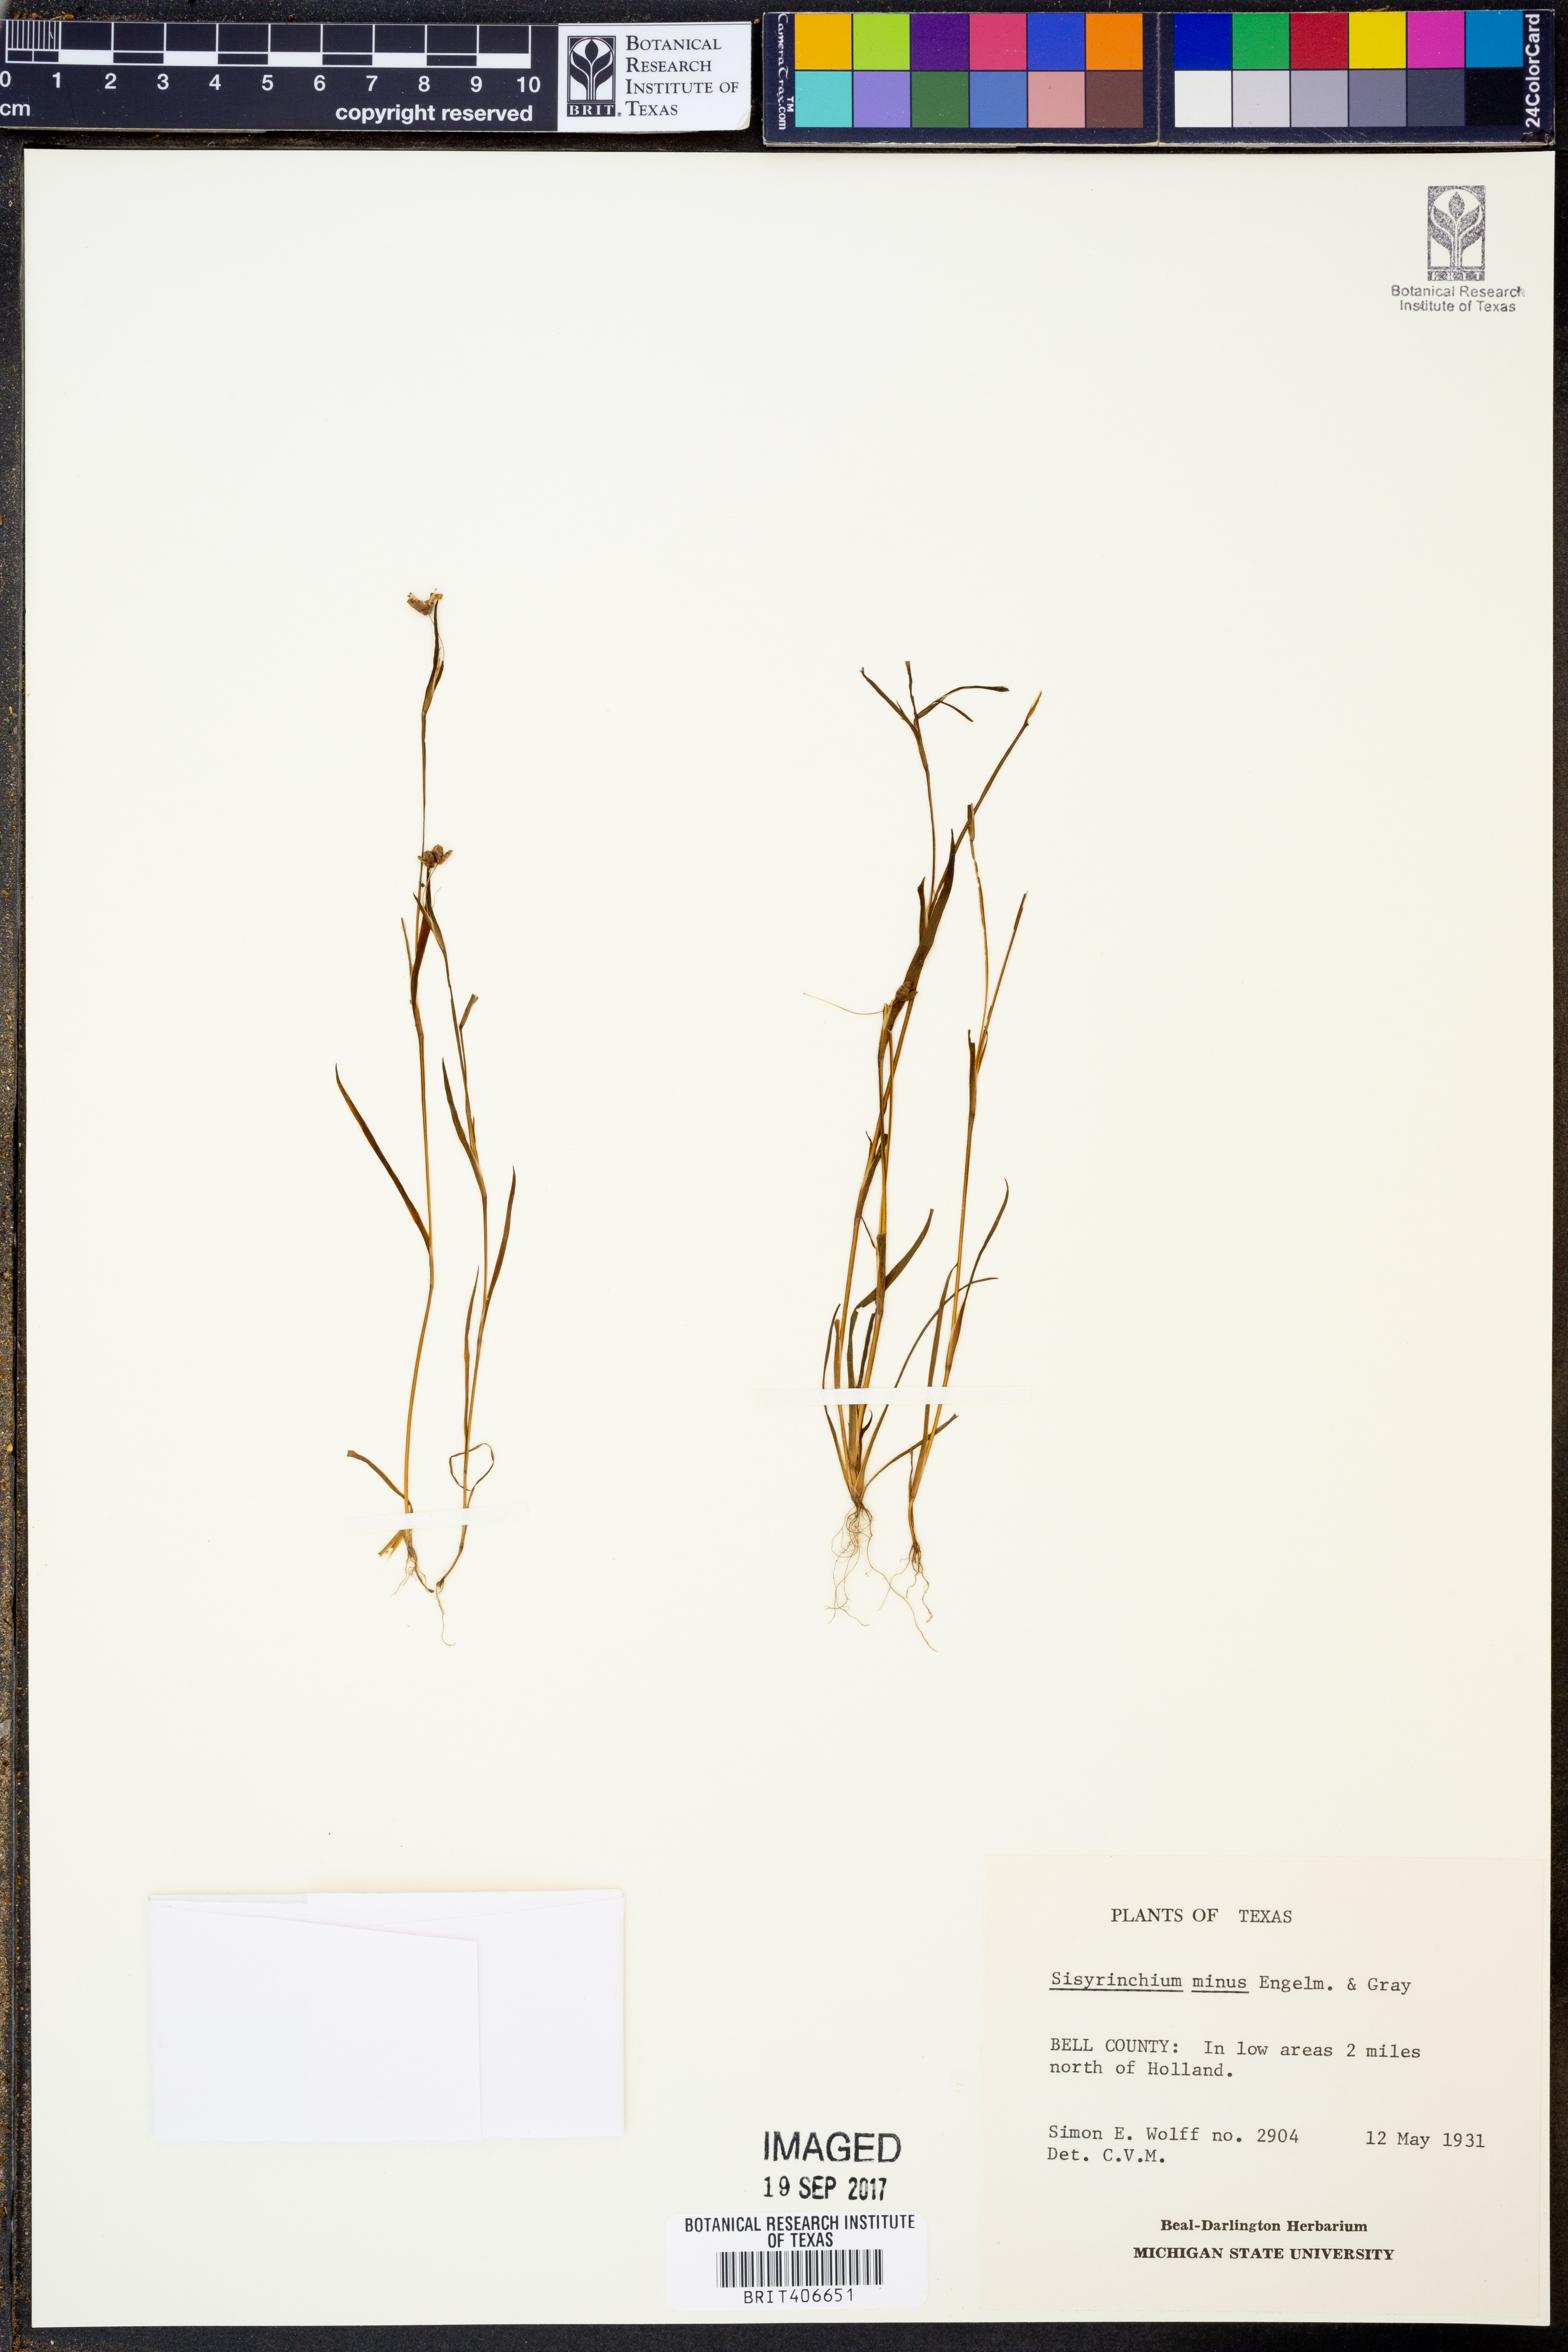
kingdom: Plantae
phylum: Tracheophyta
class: Liliopsida
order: Asparagales
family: Iridaceae
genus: Sisyrinchium
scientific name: Sisyrinchium minus
